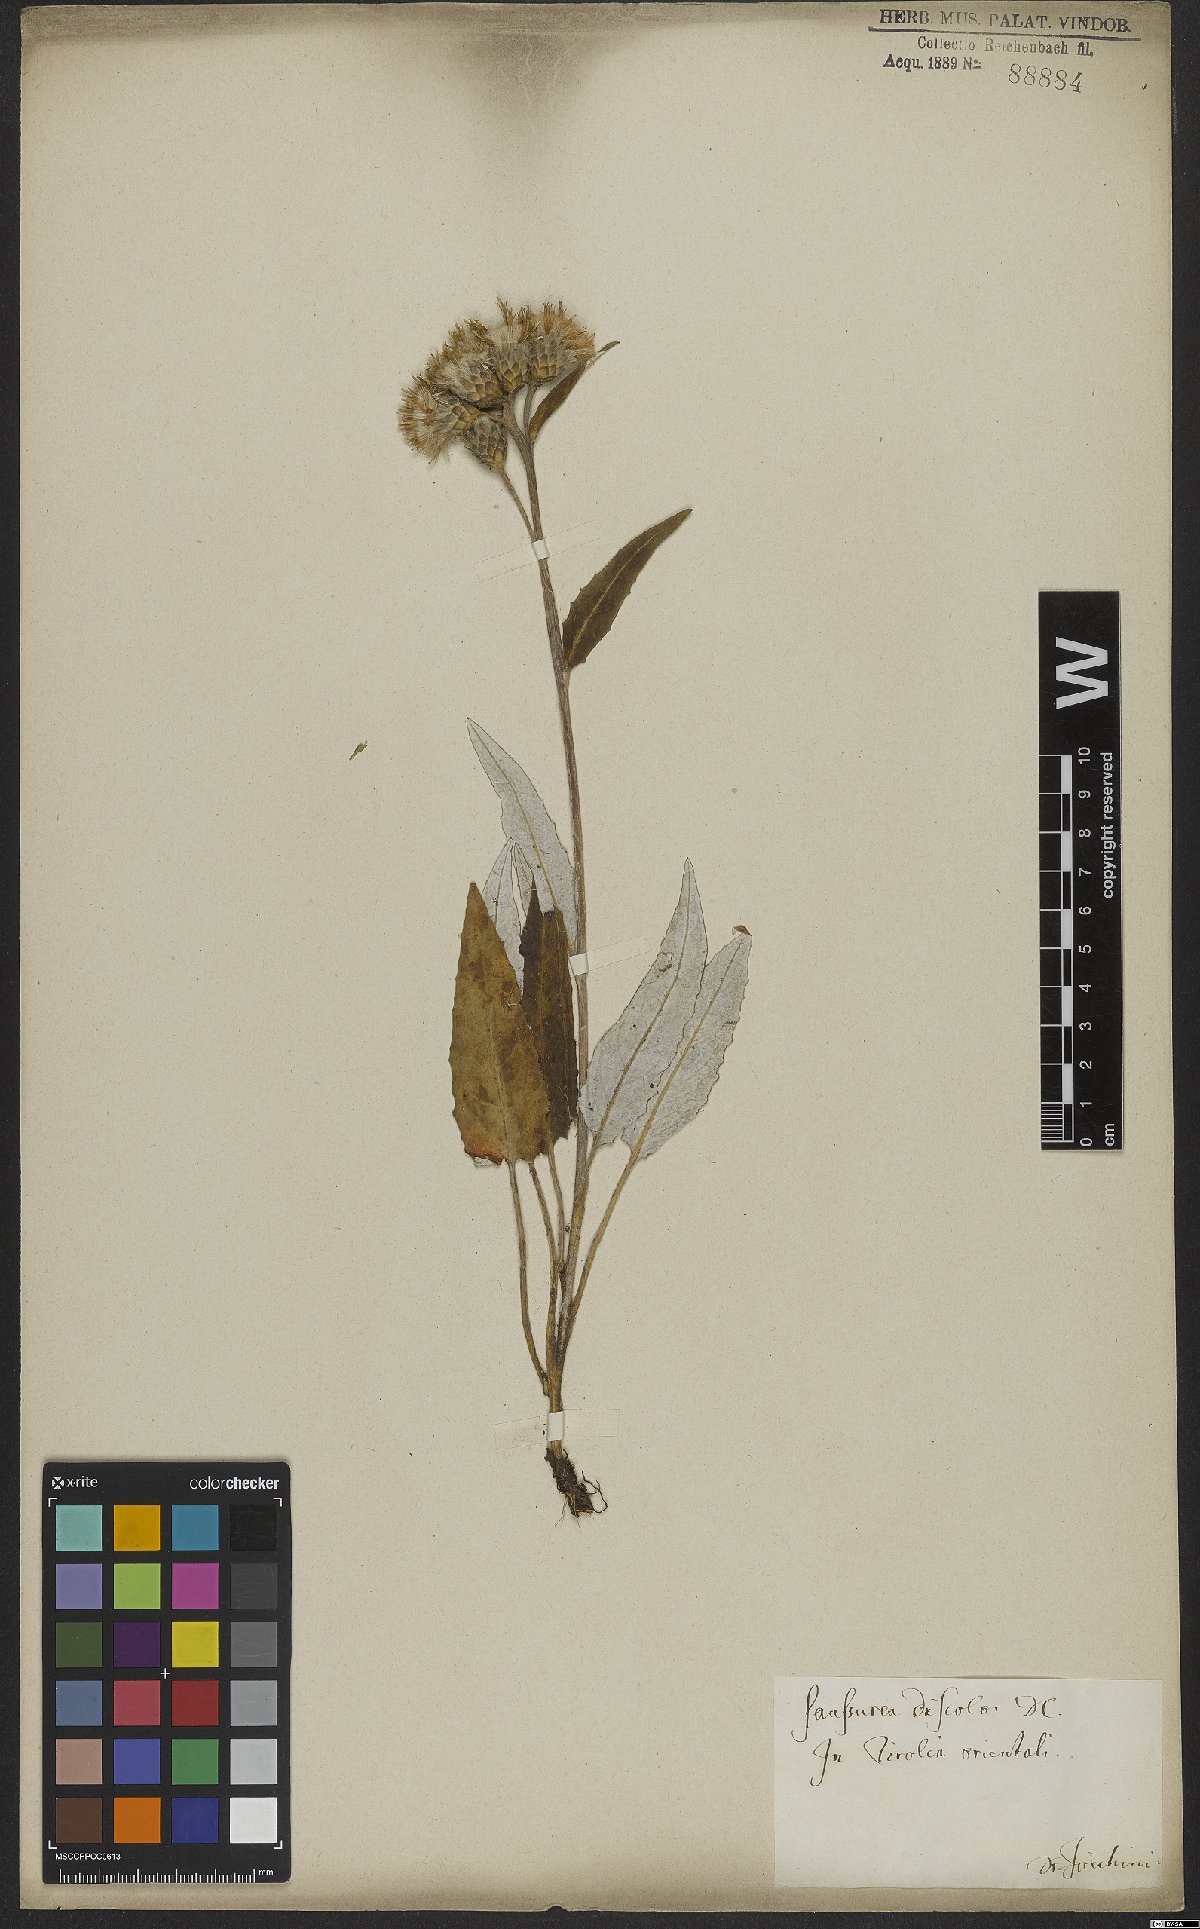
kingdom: Plantae
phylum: Tracheophyta
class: Magnoliopsida
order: Asterales
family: Asteraceae
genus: Saussurea
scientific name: Saussurea discolor
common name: Heart-leaved saussurea
